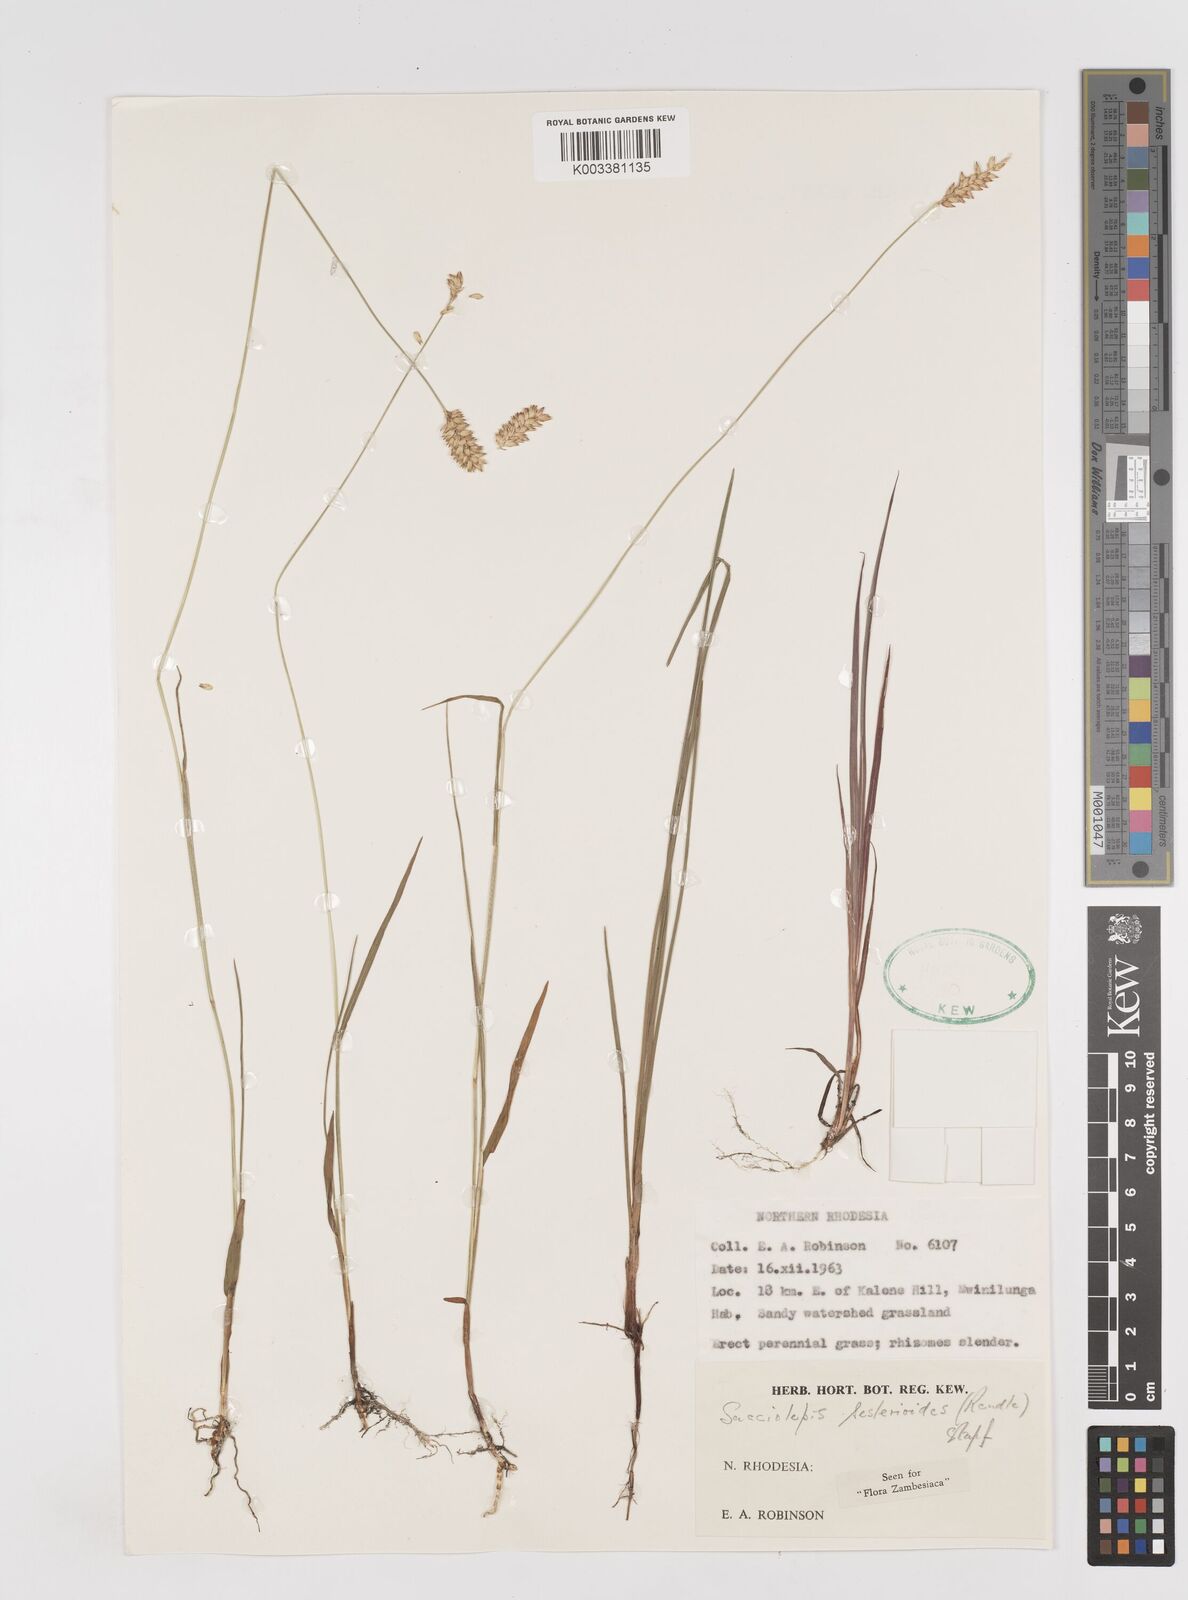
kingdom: Plantae
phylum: Tracheophyta
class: Liliopsida
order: Poales
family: Poaceae
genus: Sacciolepis
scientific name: Sacciolepis seslerioides
